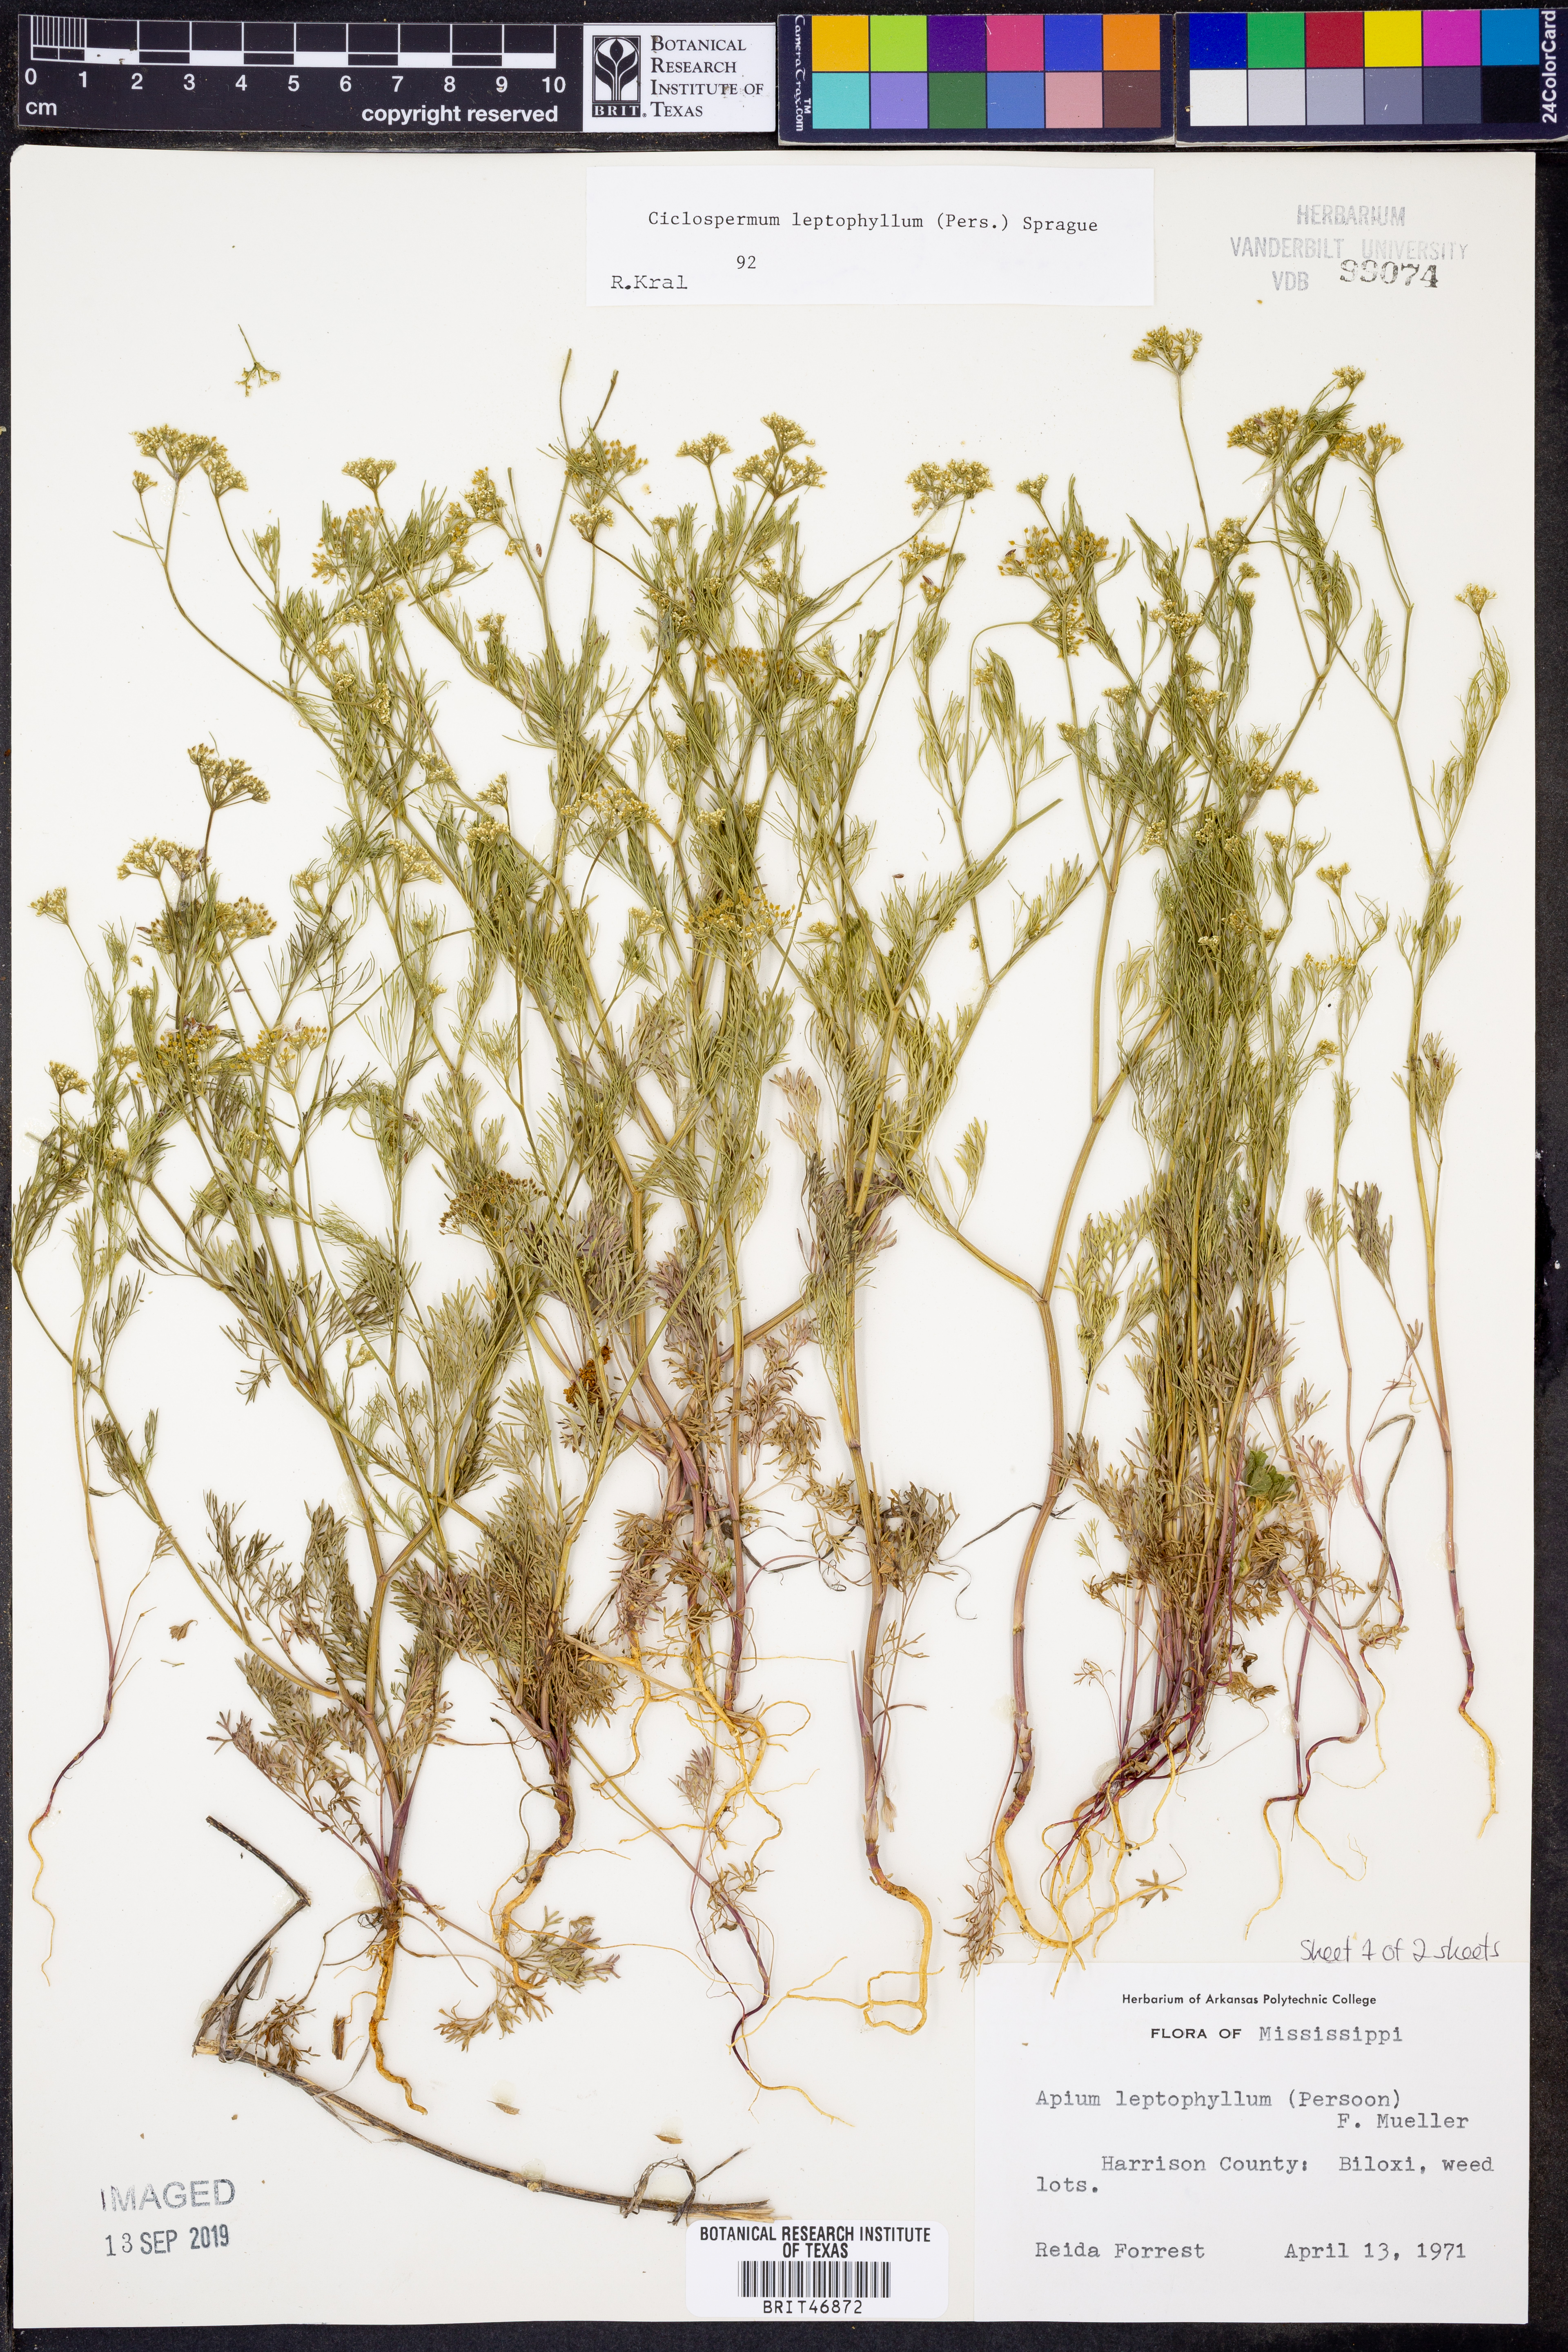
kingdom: Plantae
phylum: Tracheophyta
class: Magnoliopsida
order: Apiales
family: Apiaceae
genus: Cyclospermum
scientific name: Cyclospermum leptophyllum
